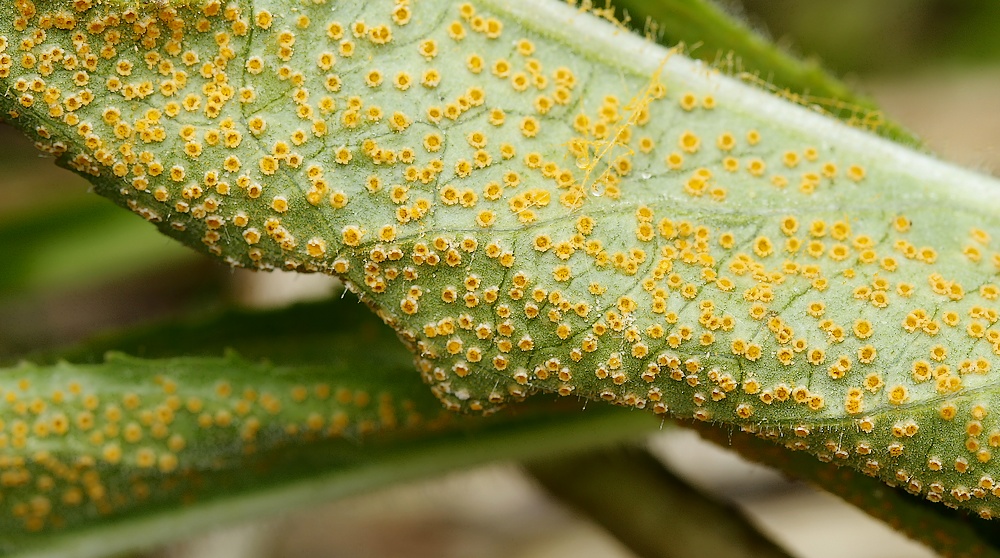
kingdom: Fungi
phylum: Basidiomycota
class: Pucciniomycetes
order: Pucciniales
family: Pucciniaceae
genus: Puccinia
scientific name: Puccinia pulverulenta
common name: dueurt-tvecellerust
